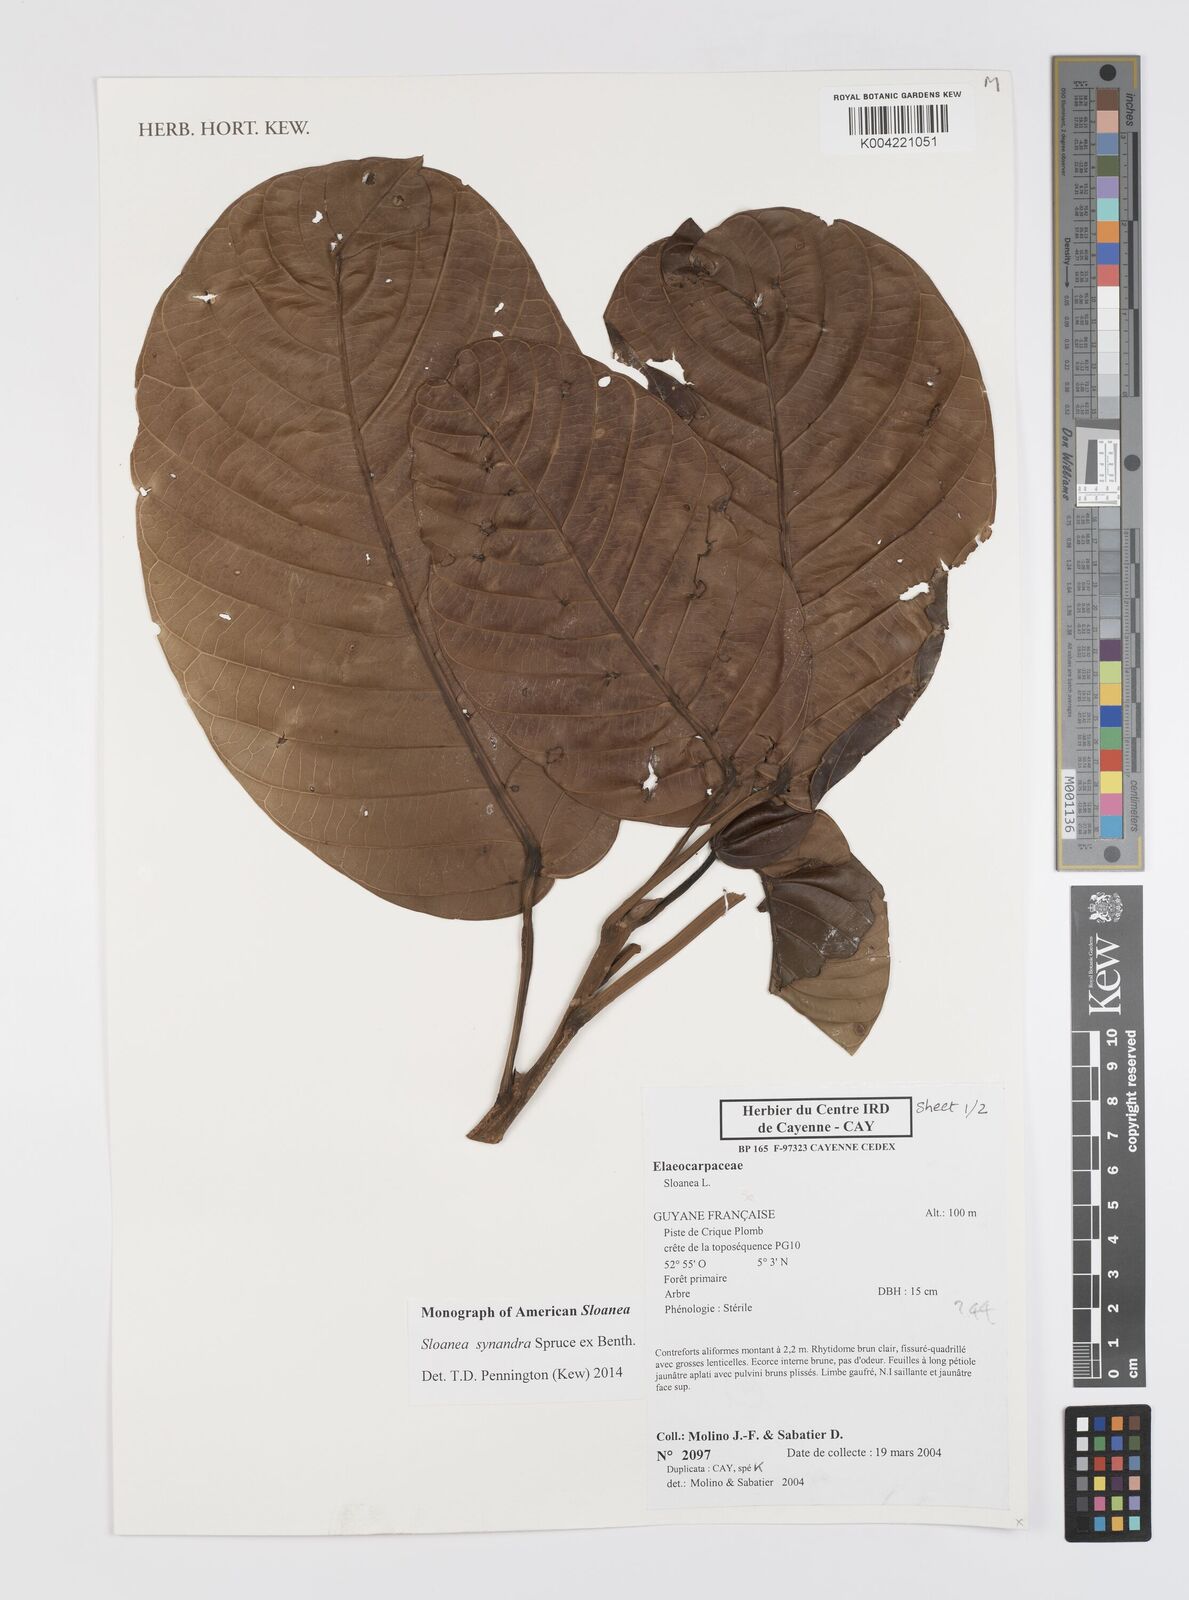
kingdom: Plantae
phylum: Tracheophyta
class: Magnoliopsida
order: Oxalidales
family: Elaeocarpaceae
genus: Sloanea
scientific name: Sloanea synandra
